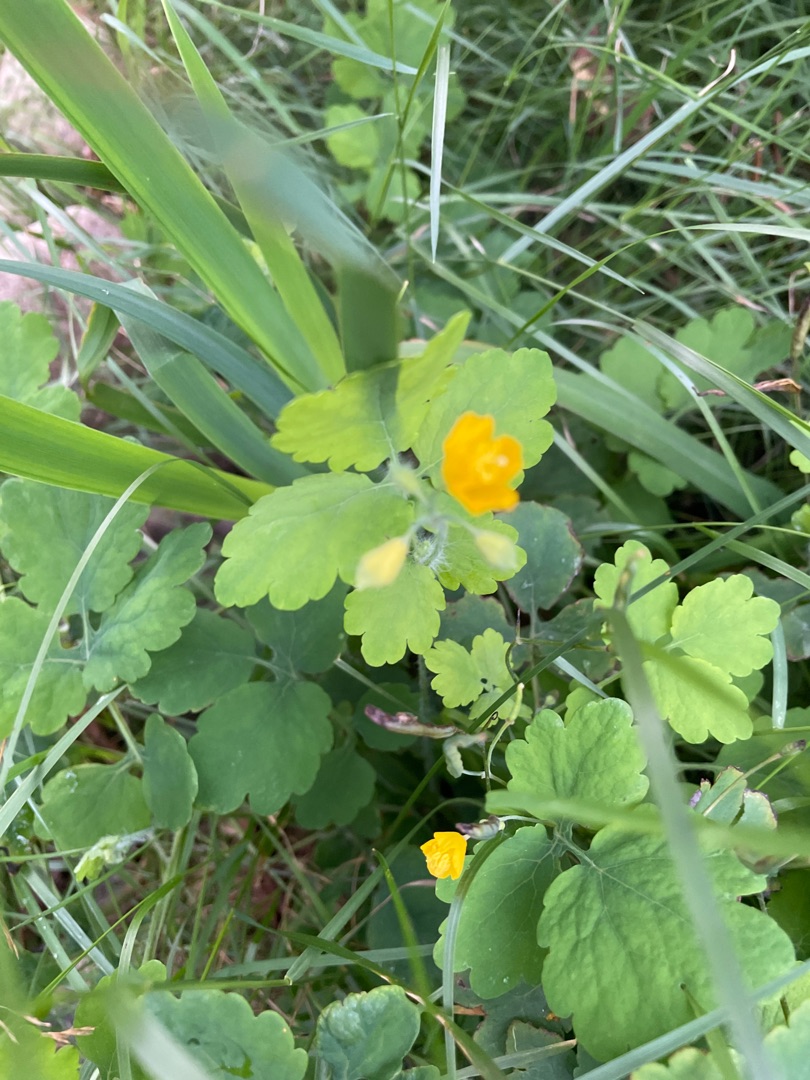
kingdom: Plantae
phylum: Tracheophyta
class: Magnoliopsida
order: Ranunculales
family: Papaveraceae
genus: Chelidonium
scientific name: Chelidonium majus
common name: Svaleurt
